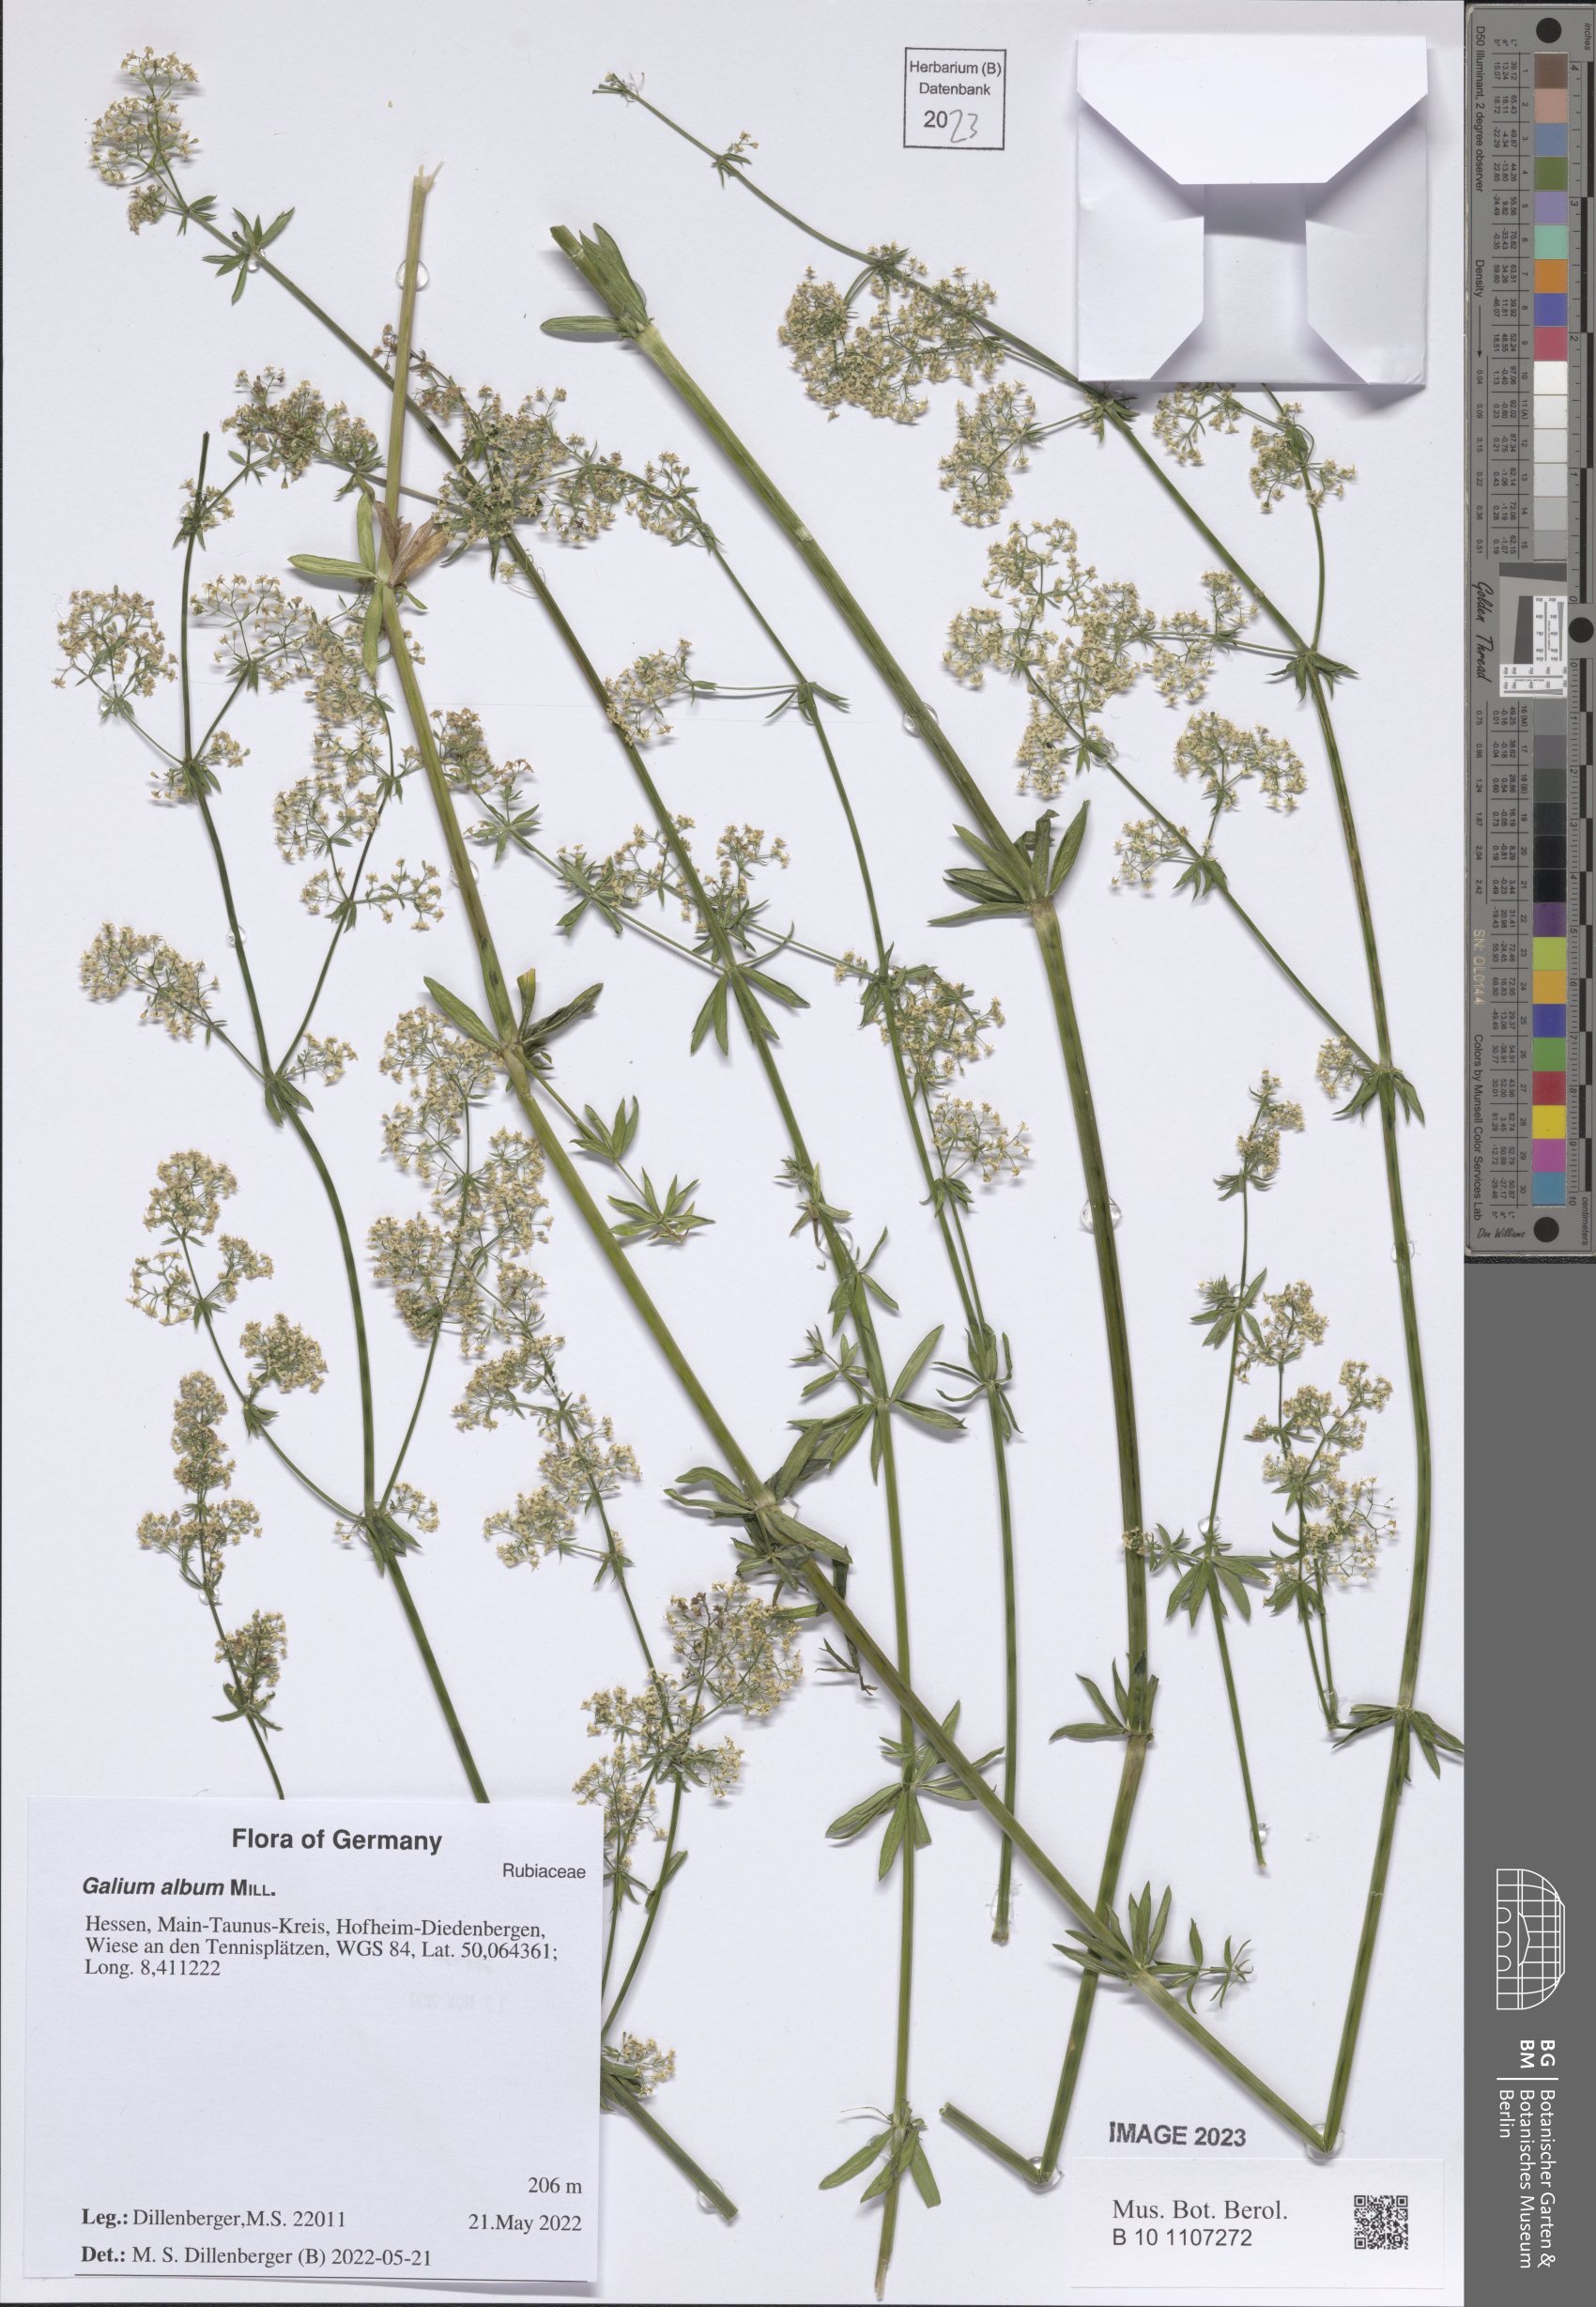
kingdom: Plantae
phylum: Tracheophyta
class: Magnoliopsida
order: Gentianales
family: Rubiaceae
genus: Galium
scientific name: Galium album
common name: White bedstraw
